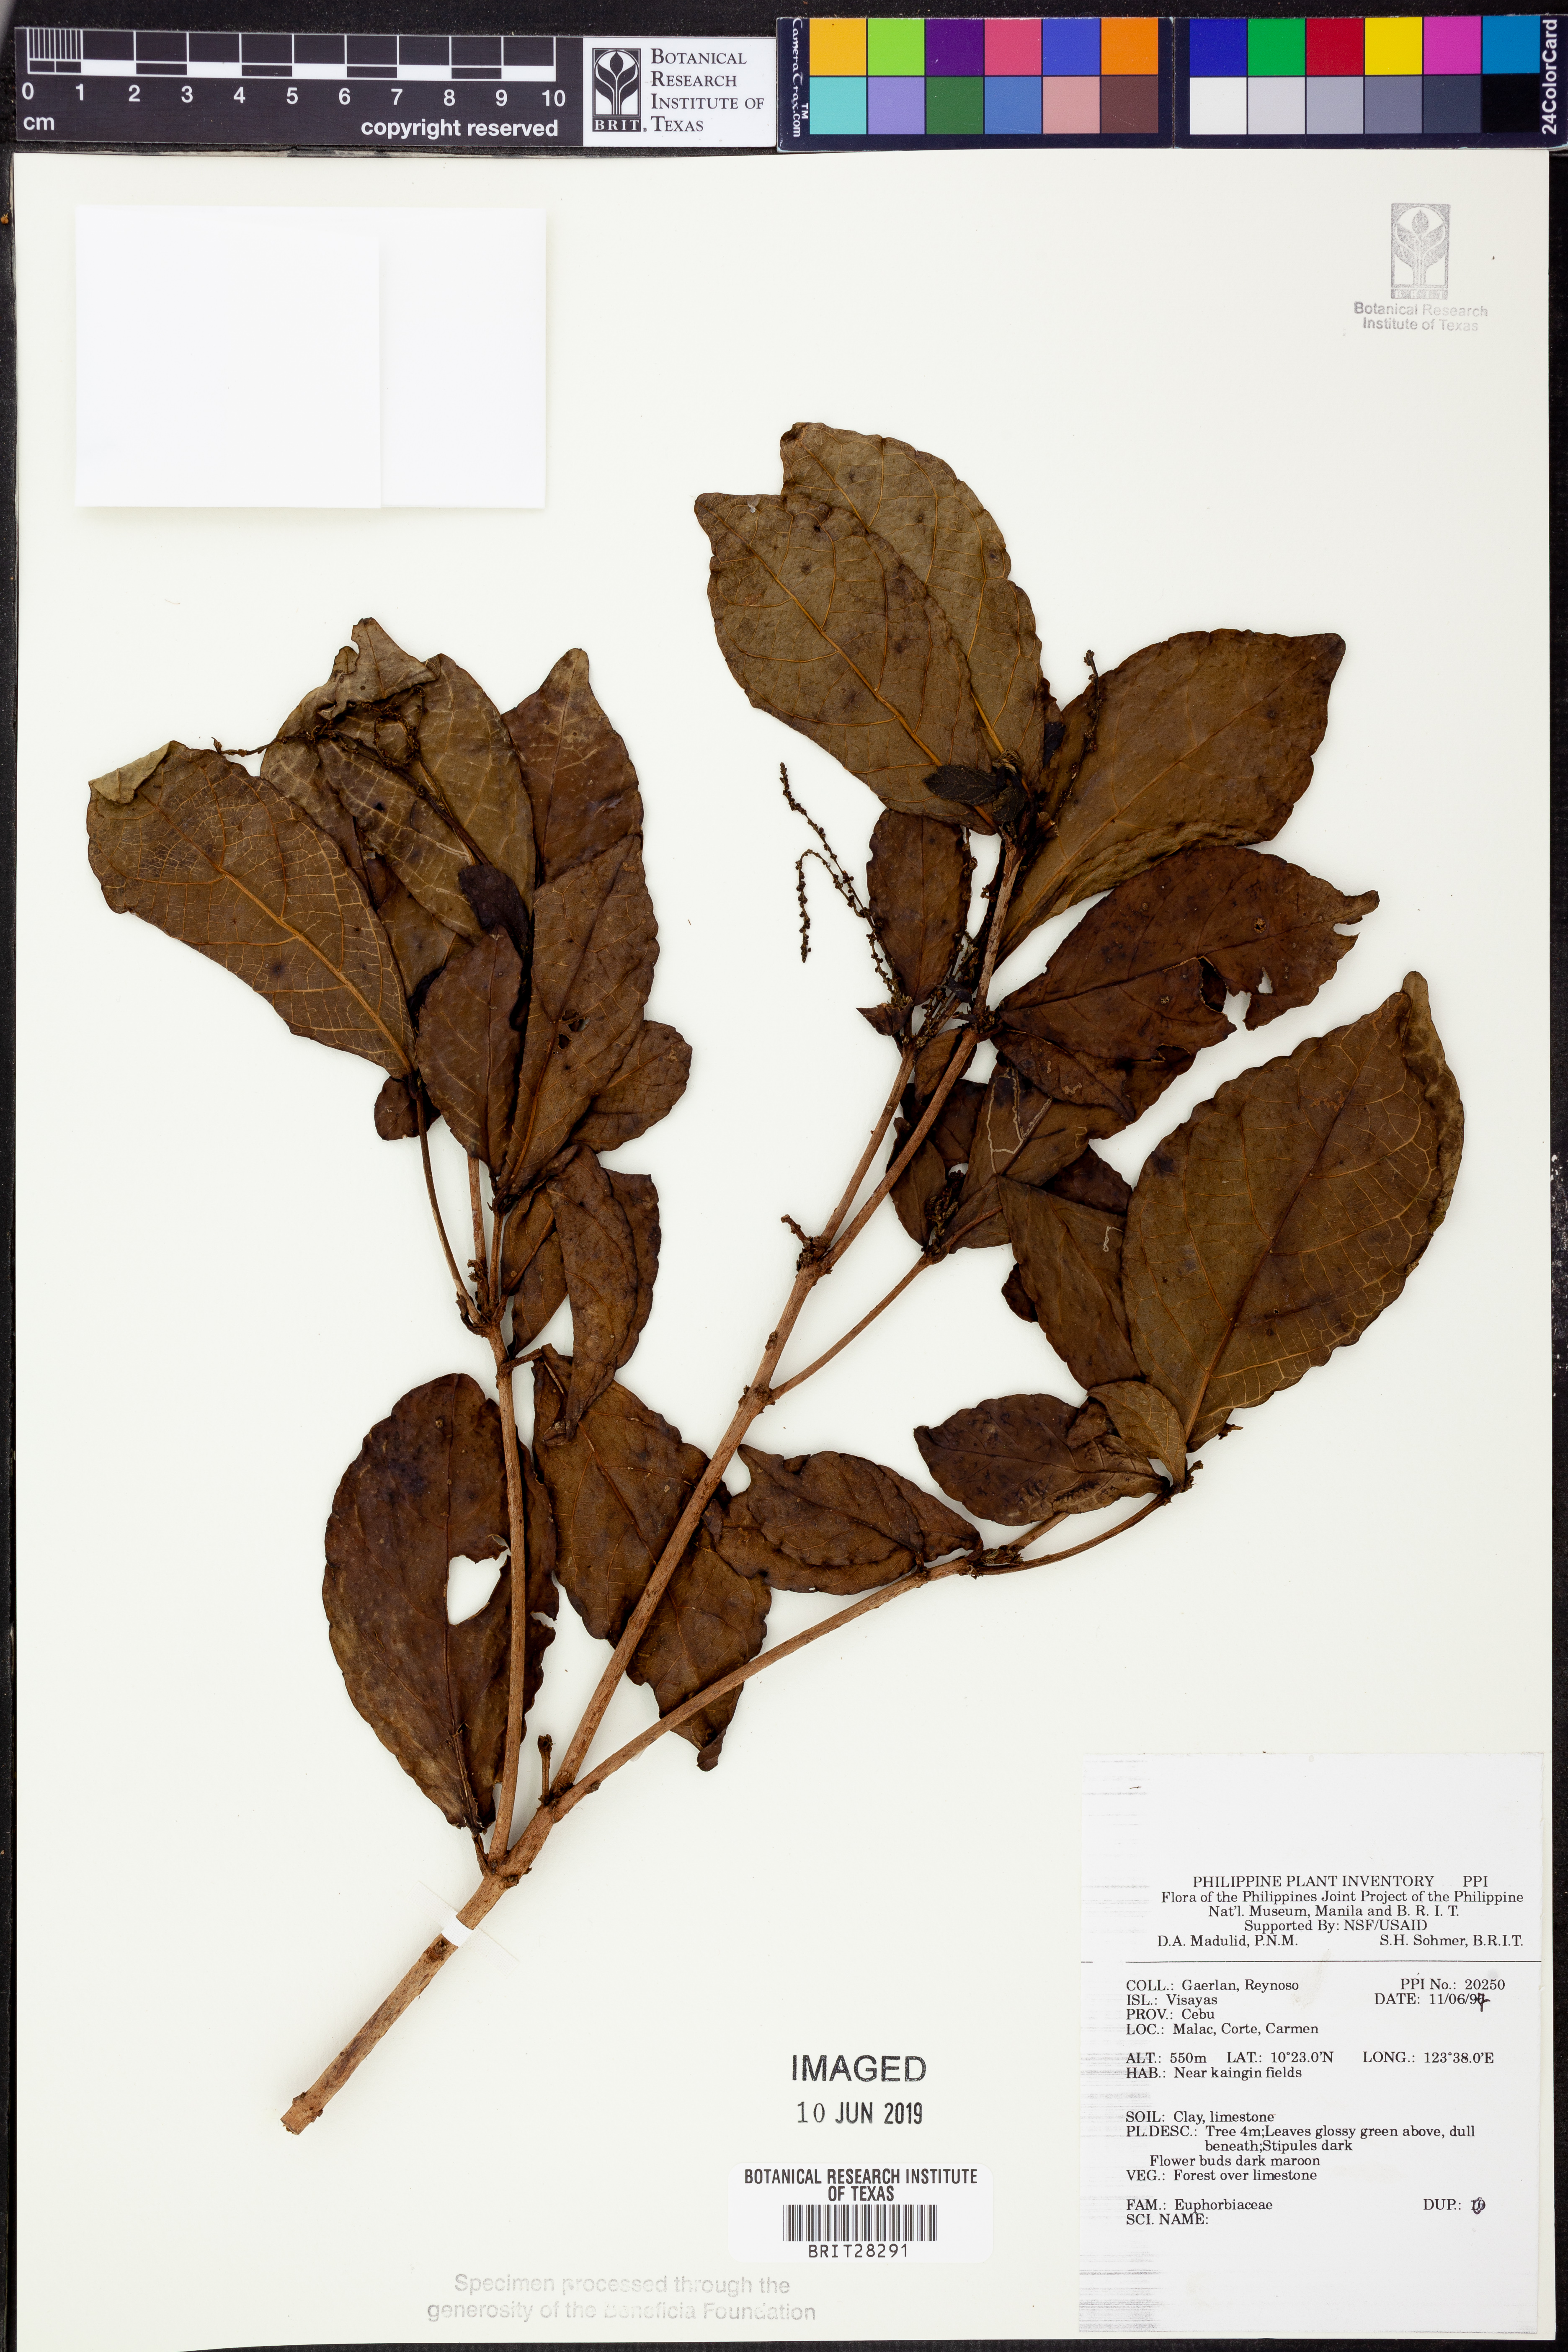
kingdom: Plantae
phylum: Tracheophyta
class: Magnoliopsida
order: Malpighiales
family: Euphorbiaceae
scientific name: Euphorbiaceae
